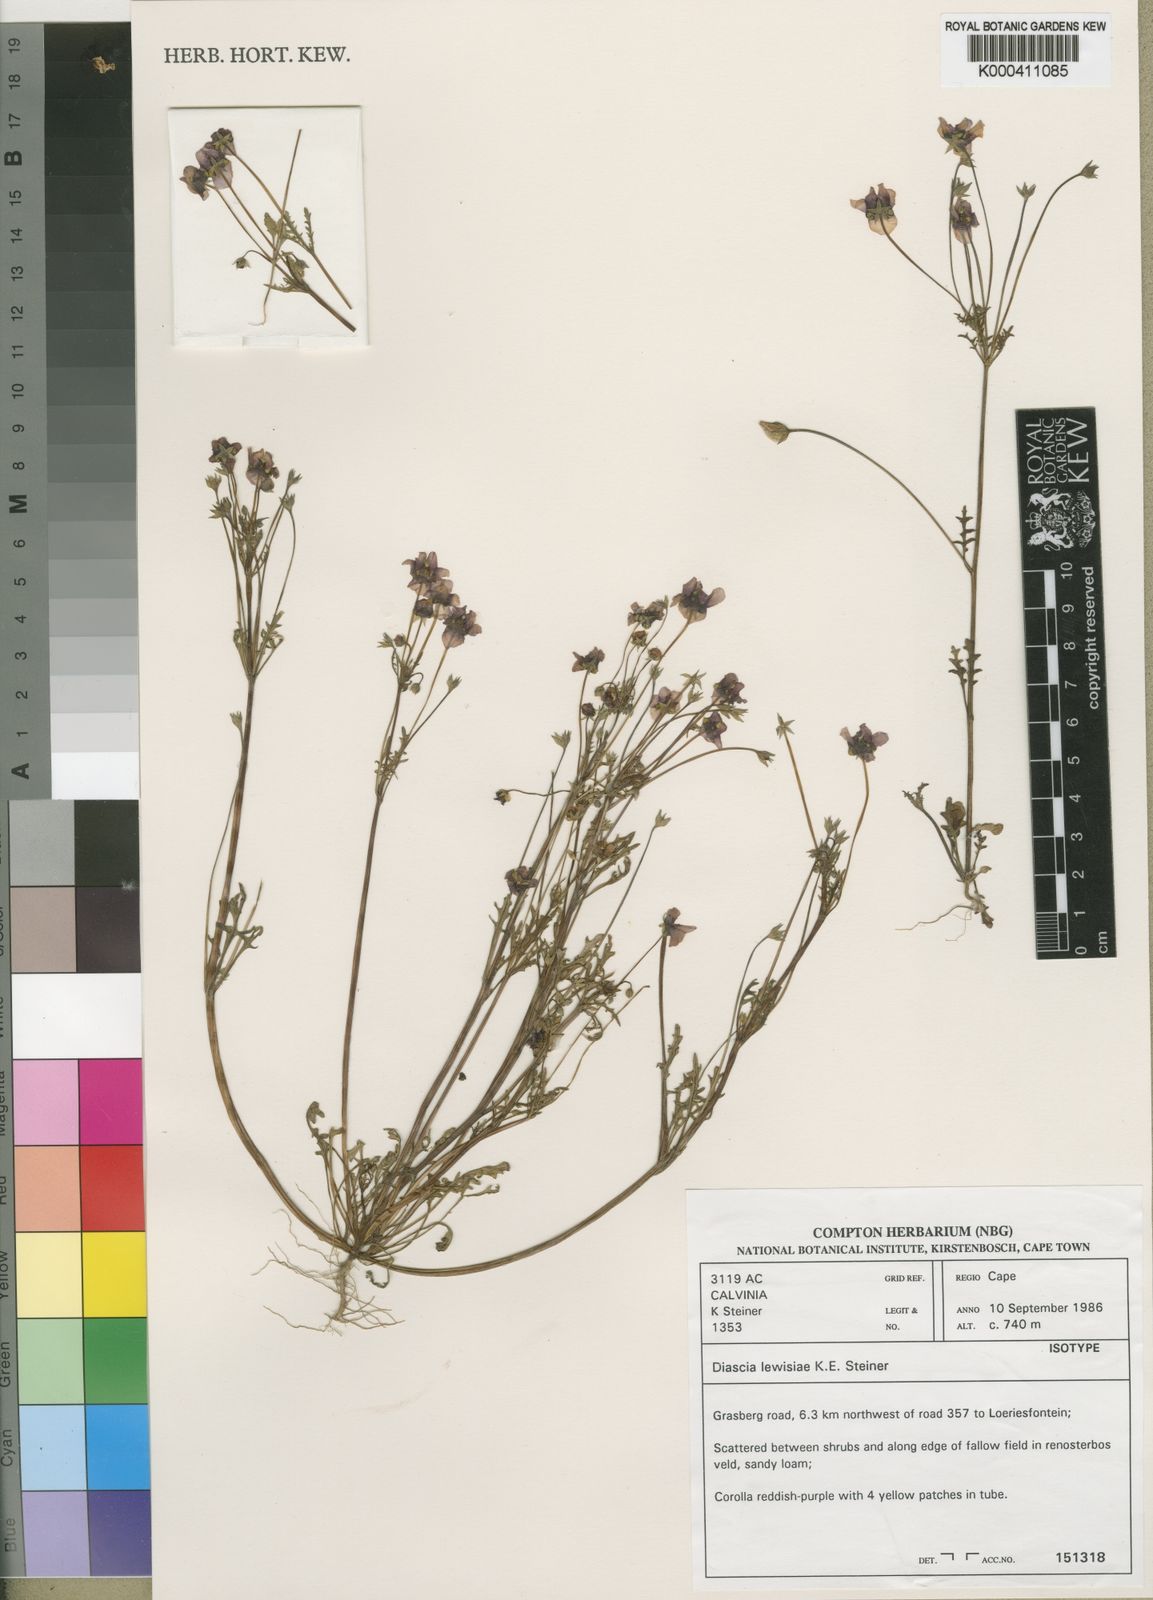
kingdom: Plantae
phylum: Tracheophyta
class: Magnoliopsida
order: Lamiales
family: Scrophulariaceae
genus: Diascia
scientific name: Diascia lewisiae
